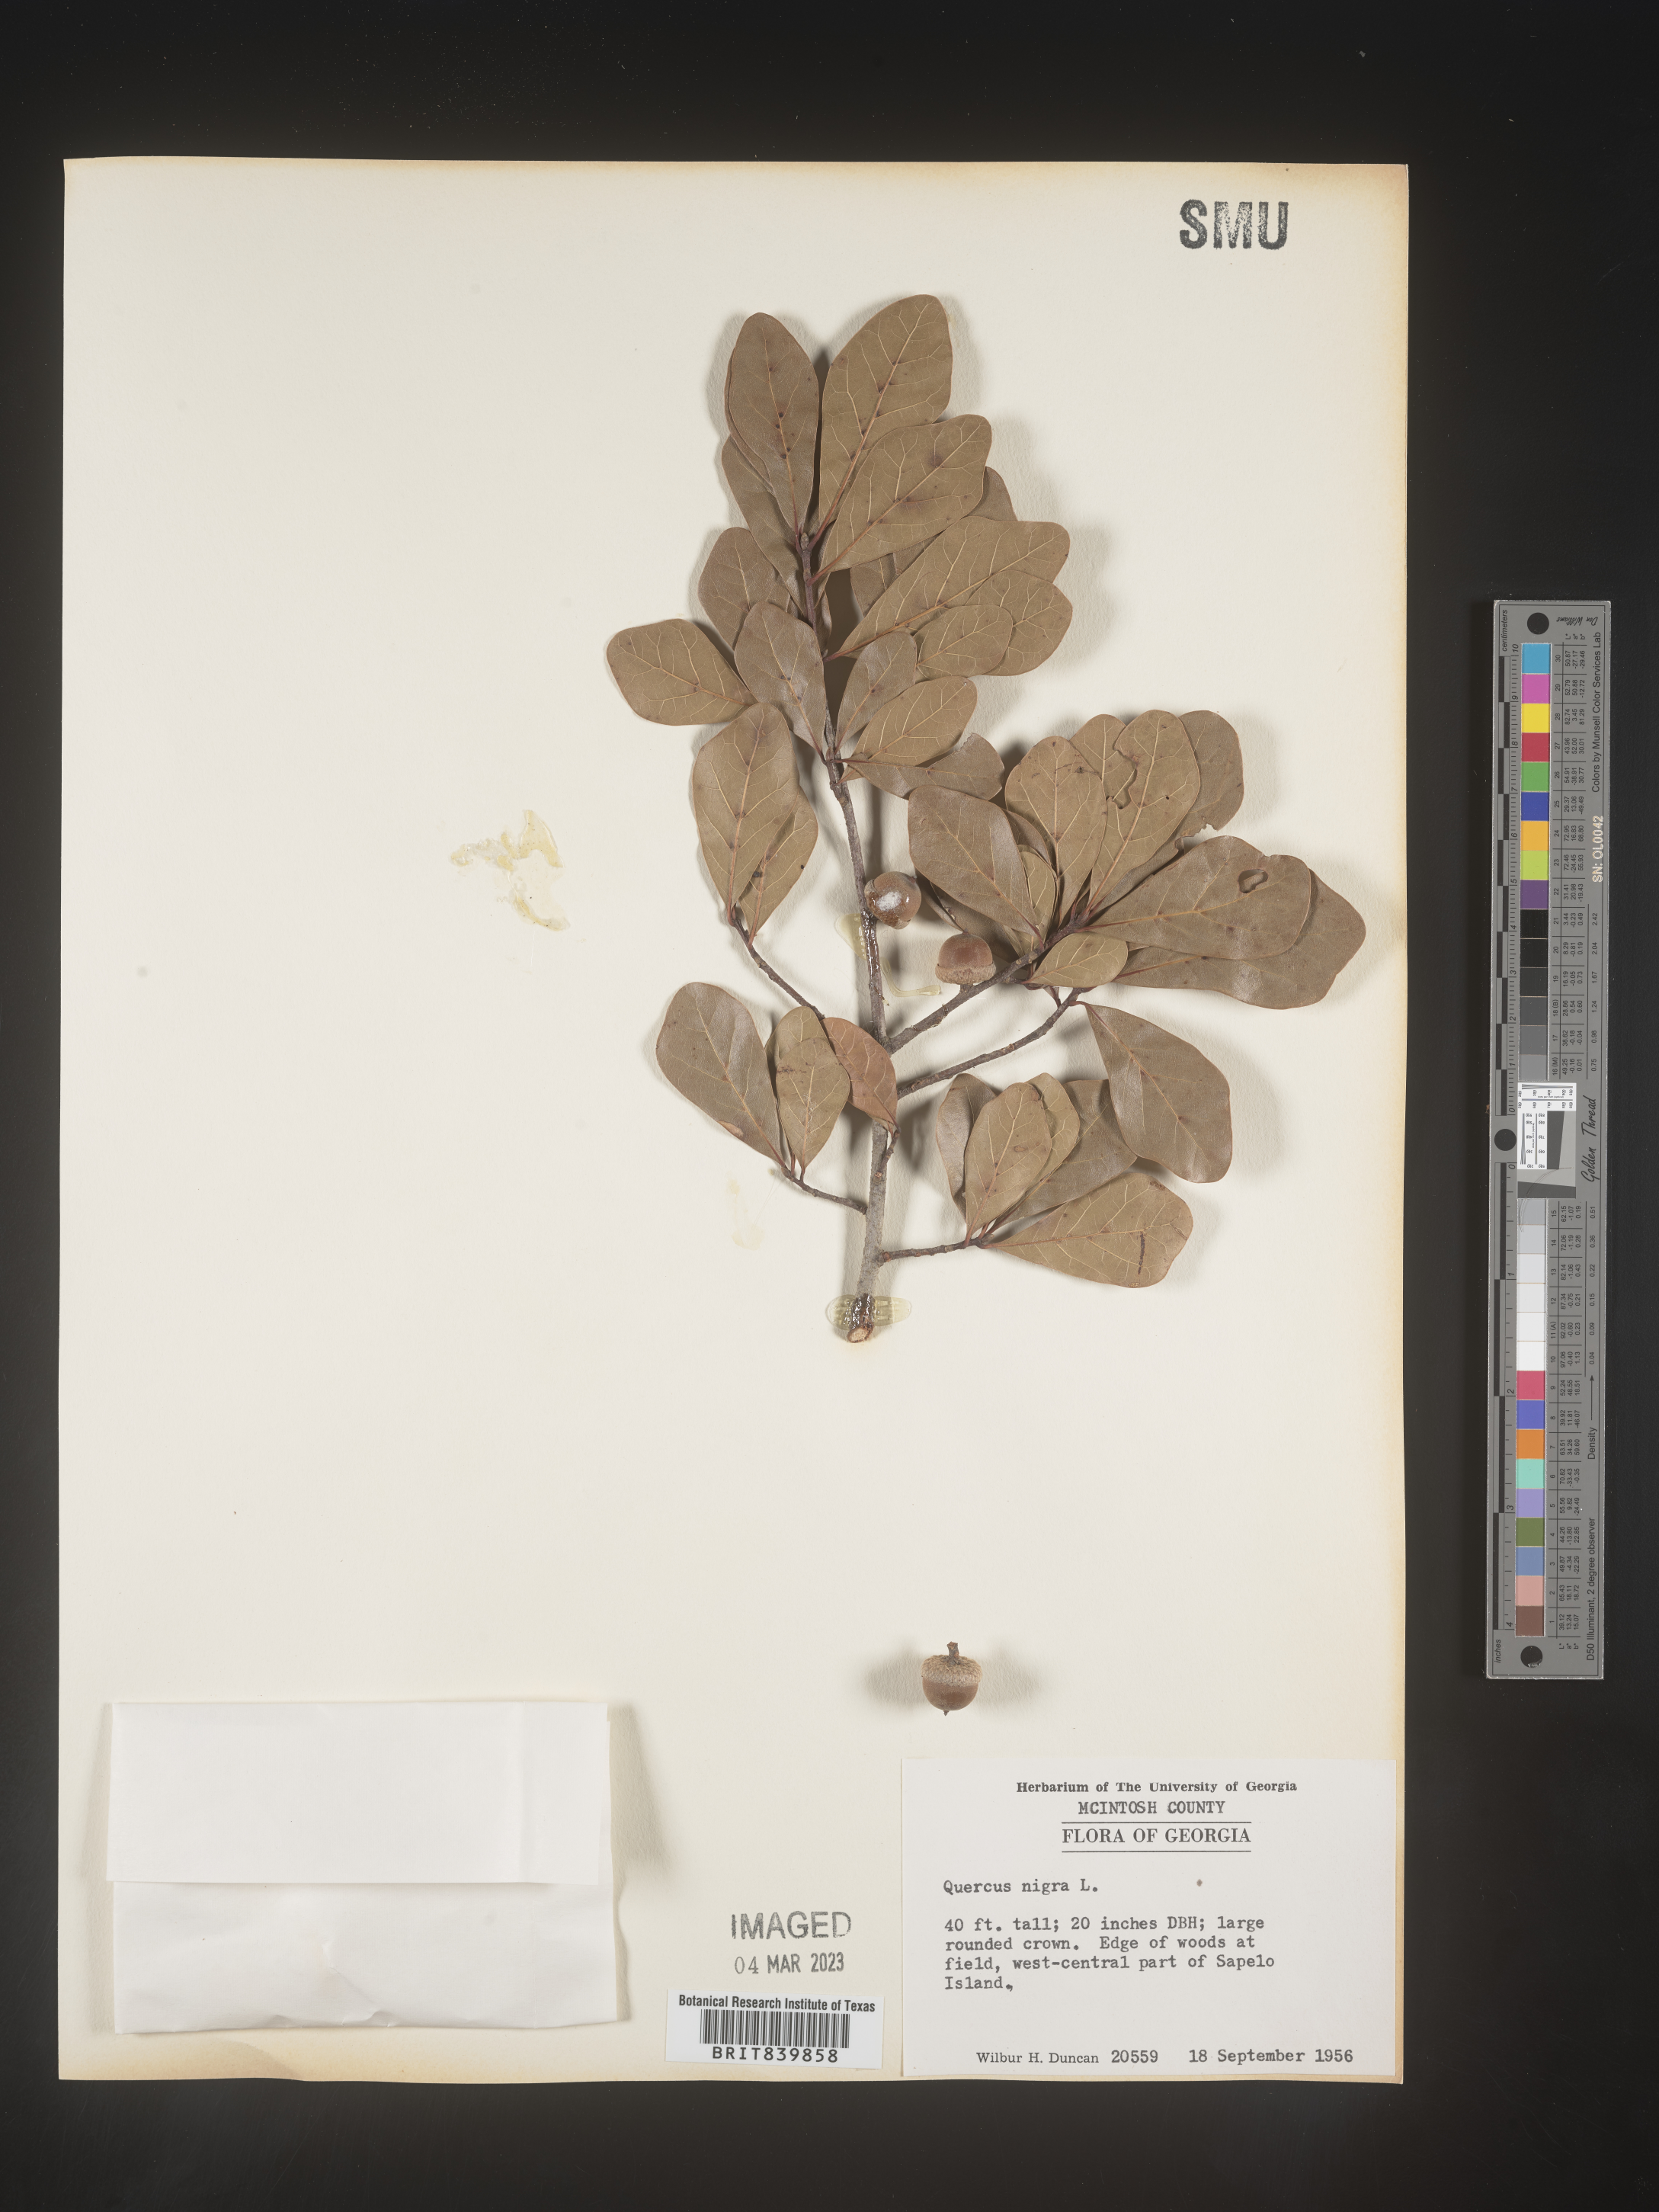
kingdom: Plantae
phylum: Tracheophyta
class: Magnoliopsida
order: Fagales
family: Fagaceae
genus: Quercus
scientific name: Quercus nigra
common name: Water oak
